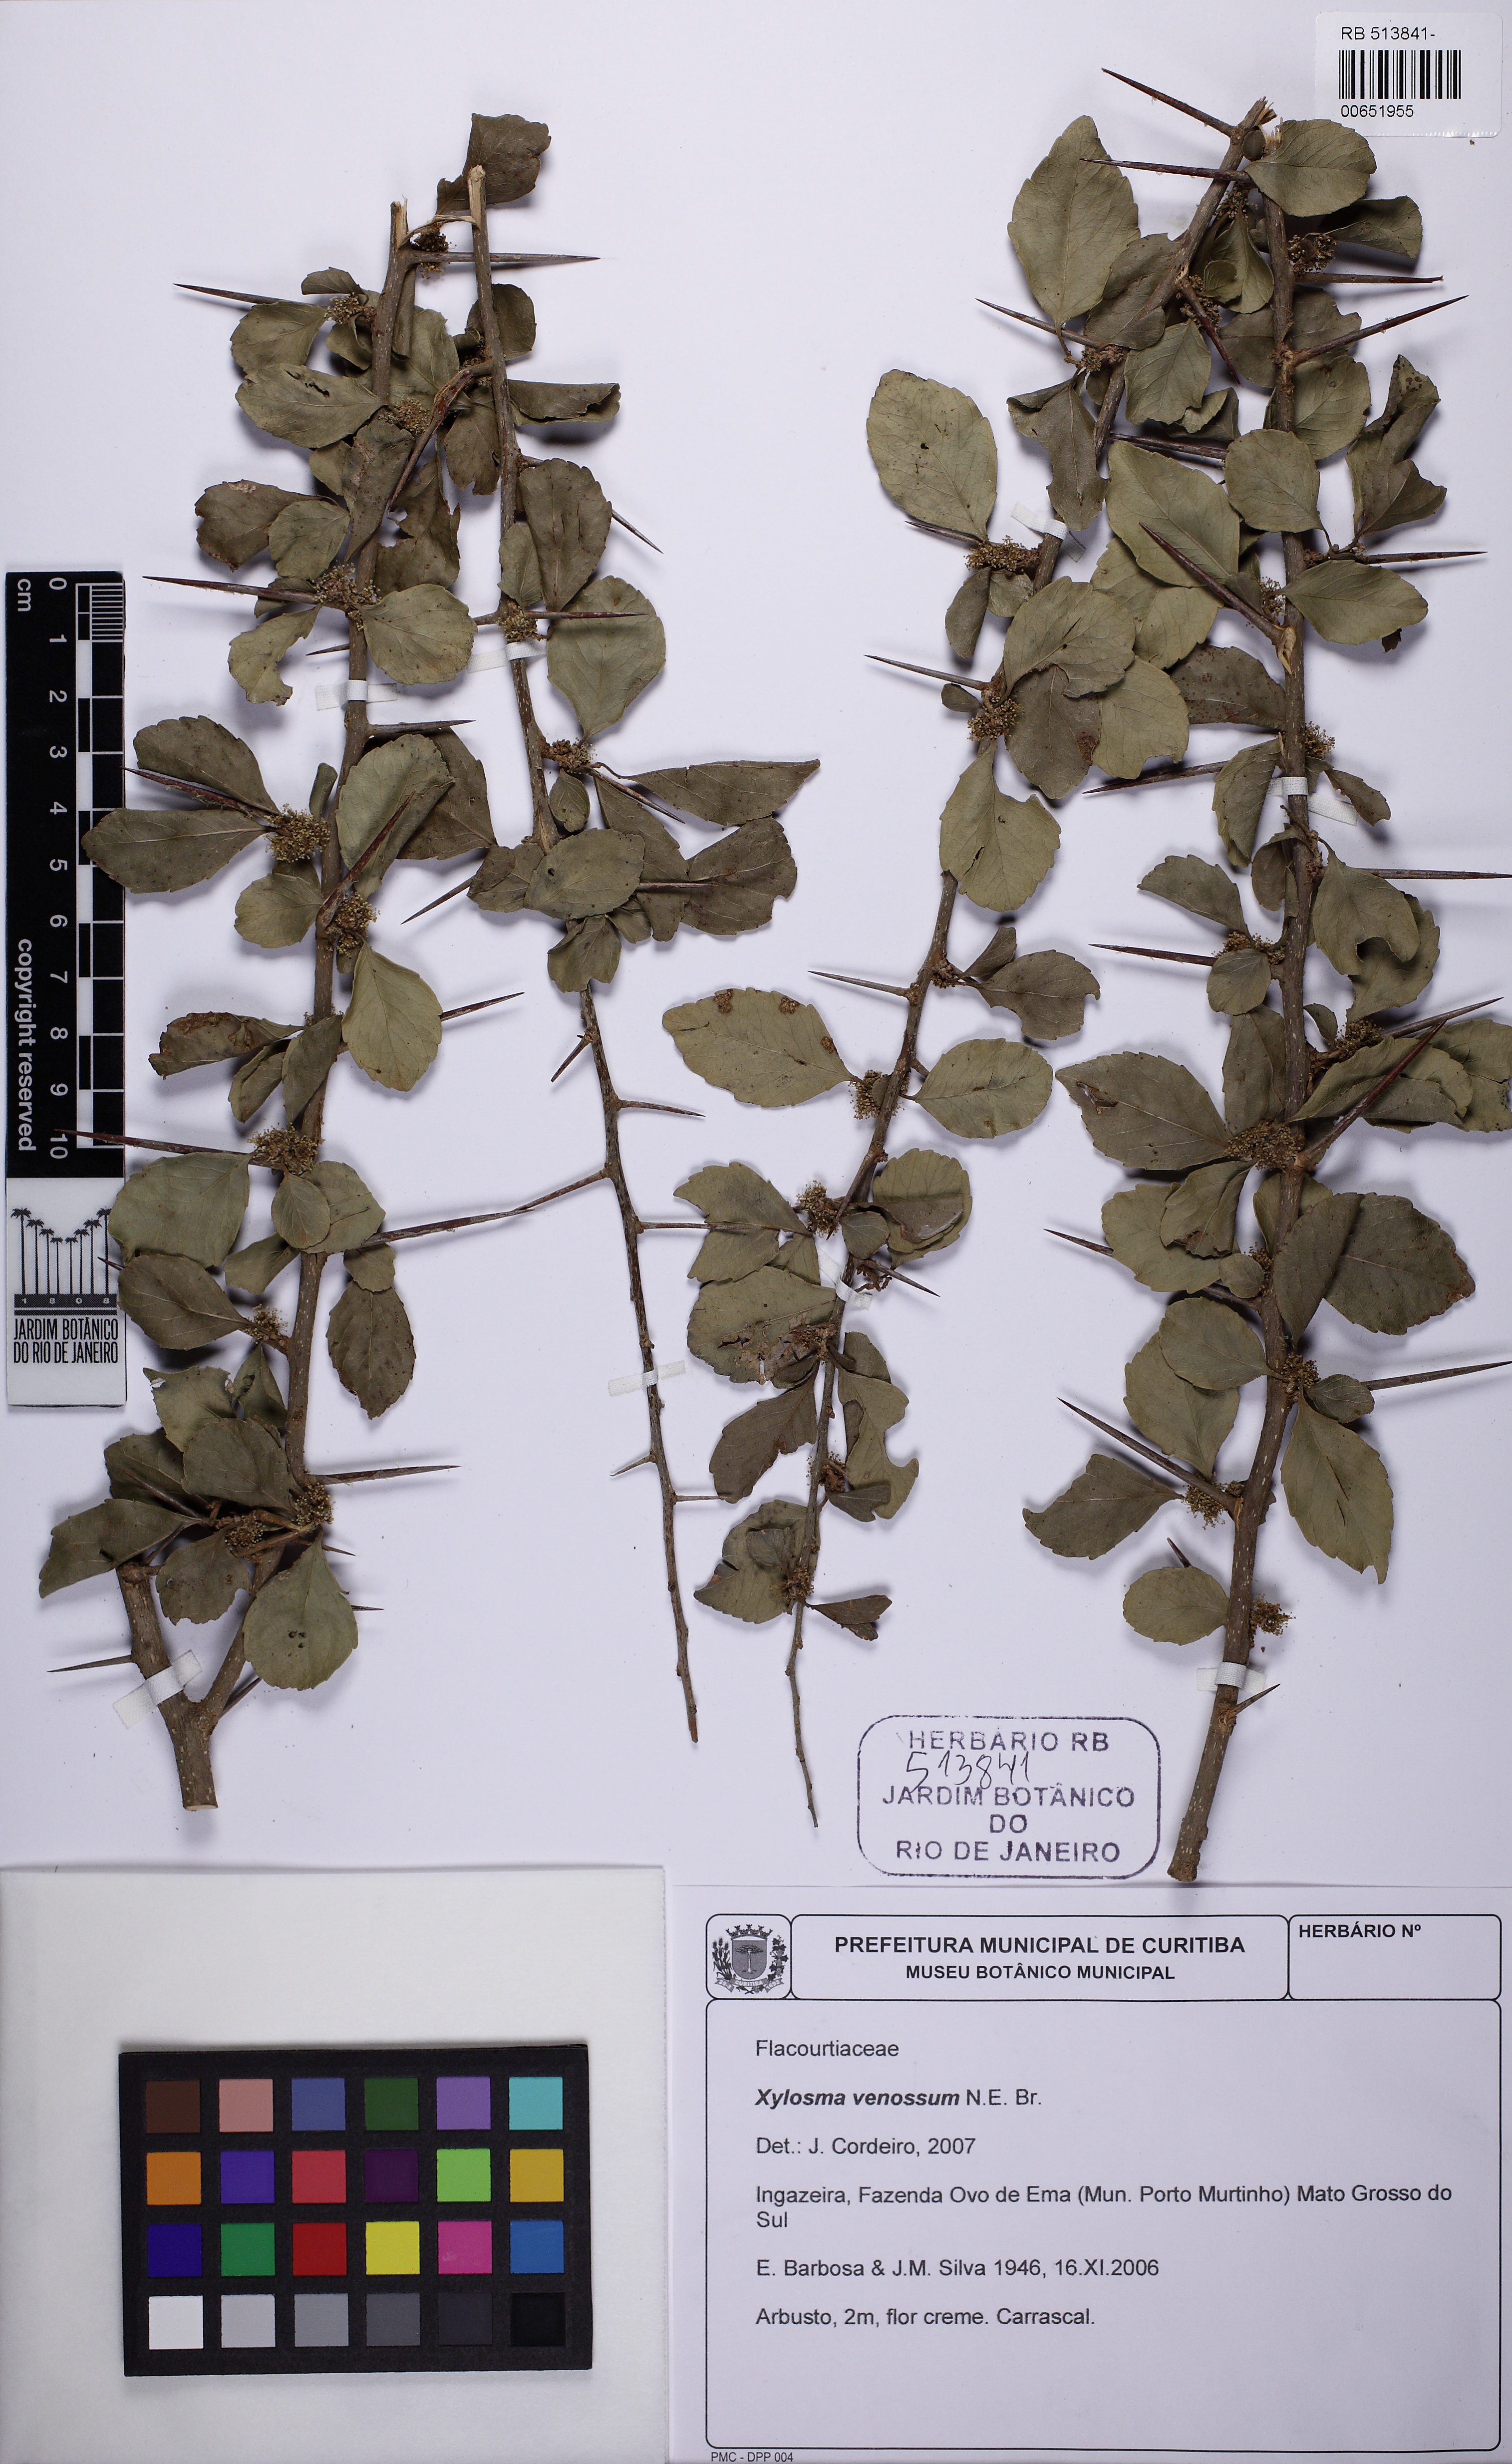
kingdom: Plantae
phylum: Tracheophyta
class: Magnoliopsida
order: Malpighiales
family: Salicaceae
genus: Xylosma
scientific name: Xylosma venosa
